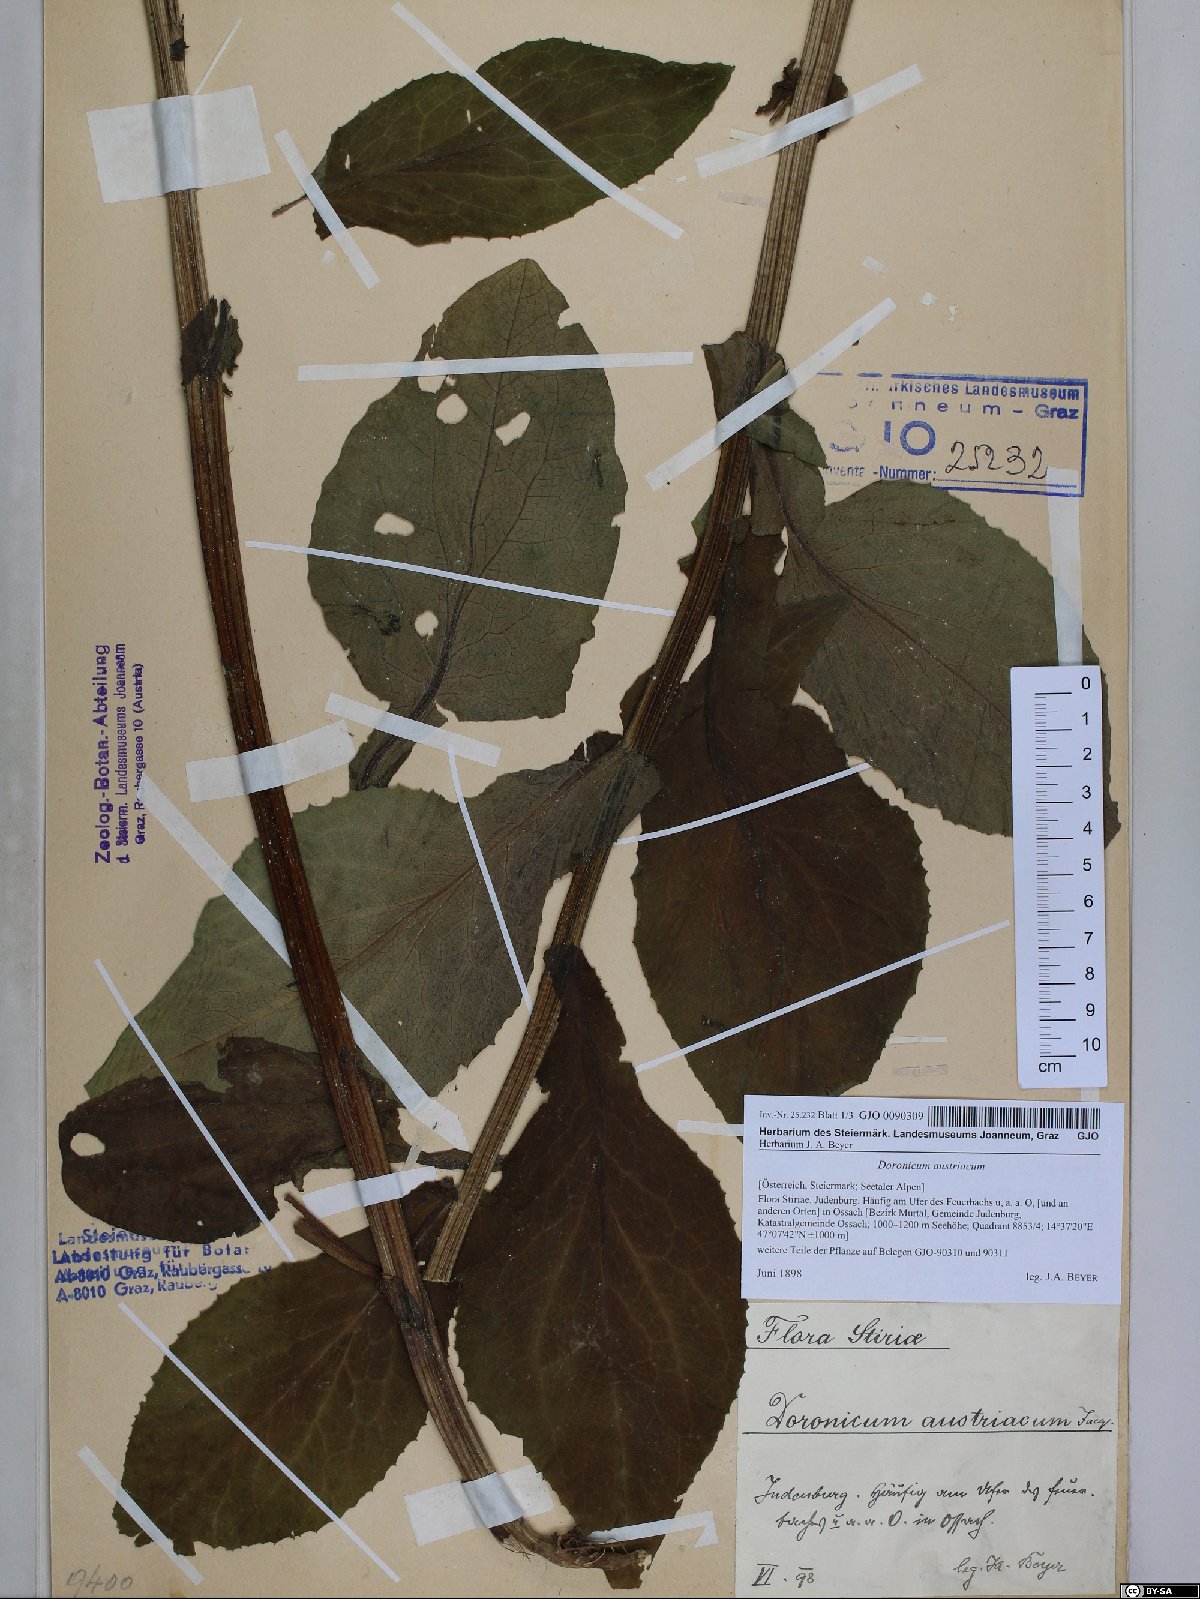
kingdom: Plantae
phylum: Tracheophyta
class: Magnoliopsida
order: Asterales
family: Asteraceae
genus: Doronicum
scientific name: Doronicum austriacum
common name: Austrian leopard's-bane
